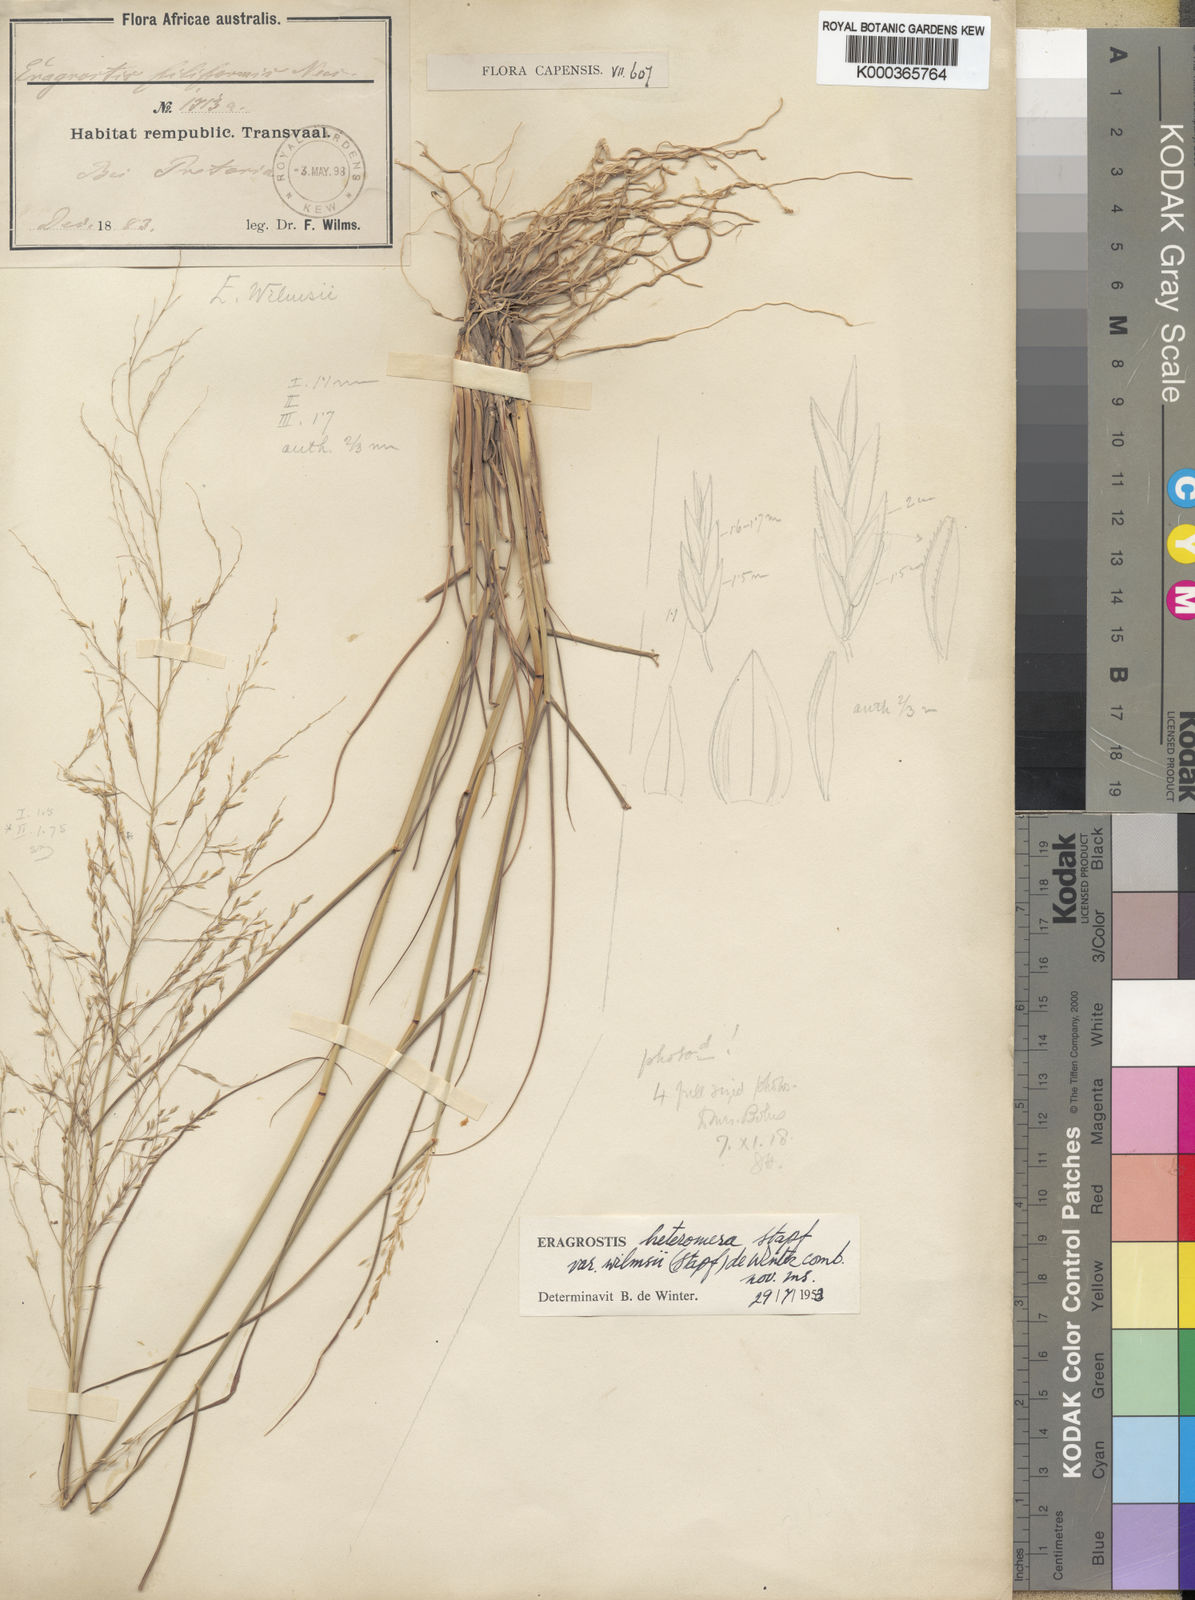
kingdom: Plantae
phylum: Tracheophyta
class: Liliopsida
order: Poales
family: Poaceae
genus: Eragrostis
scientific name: Eragrostis heteromera
